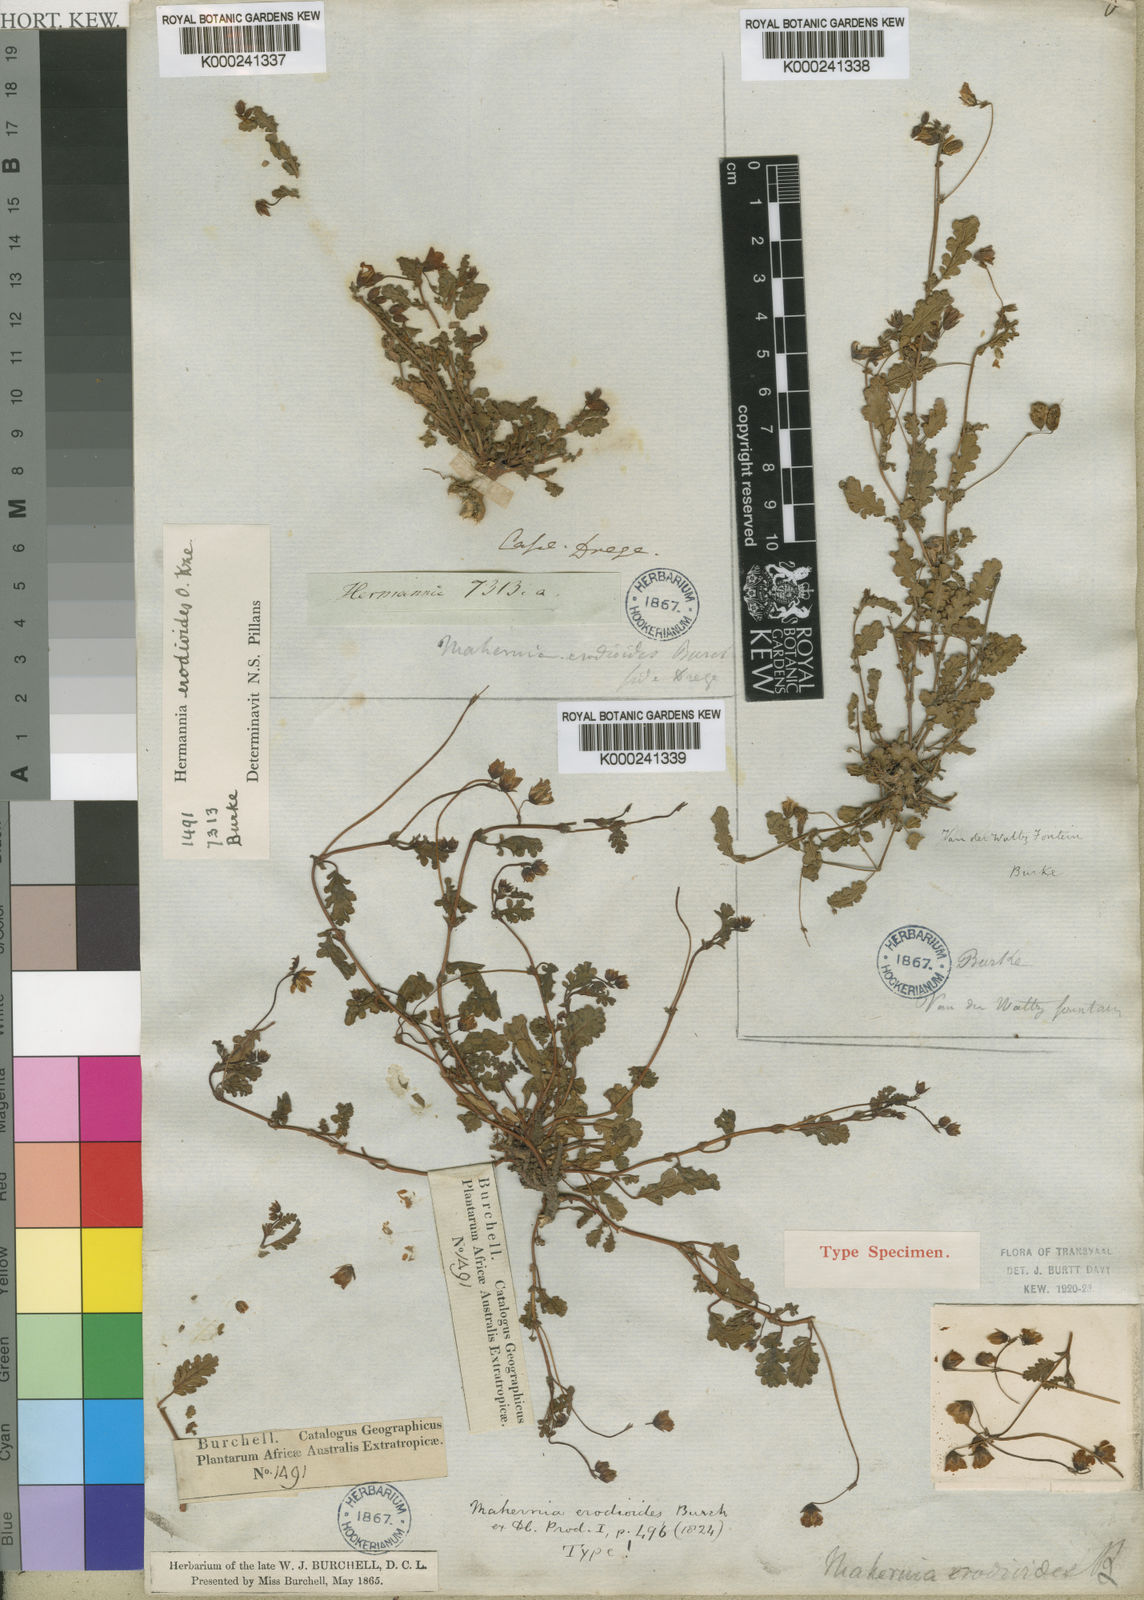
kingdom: Plantae
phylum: Tracheophyta
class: Magnoliopsida
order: Malvales
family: Malvaceae
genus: Hermannia
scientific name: Hermannia
